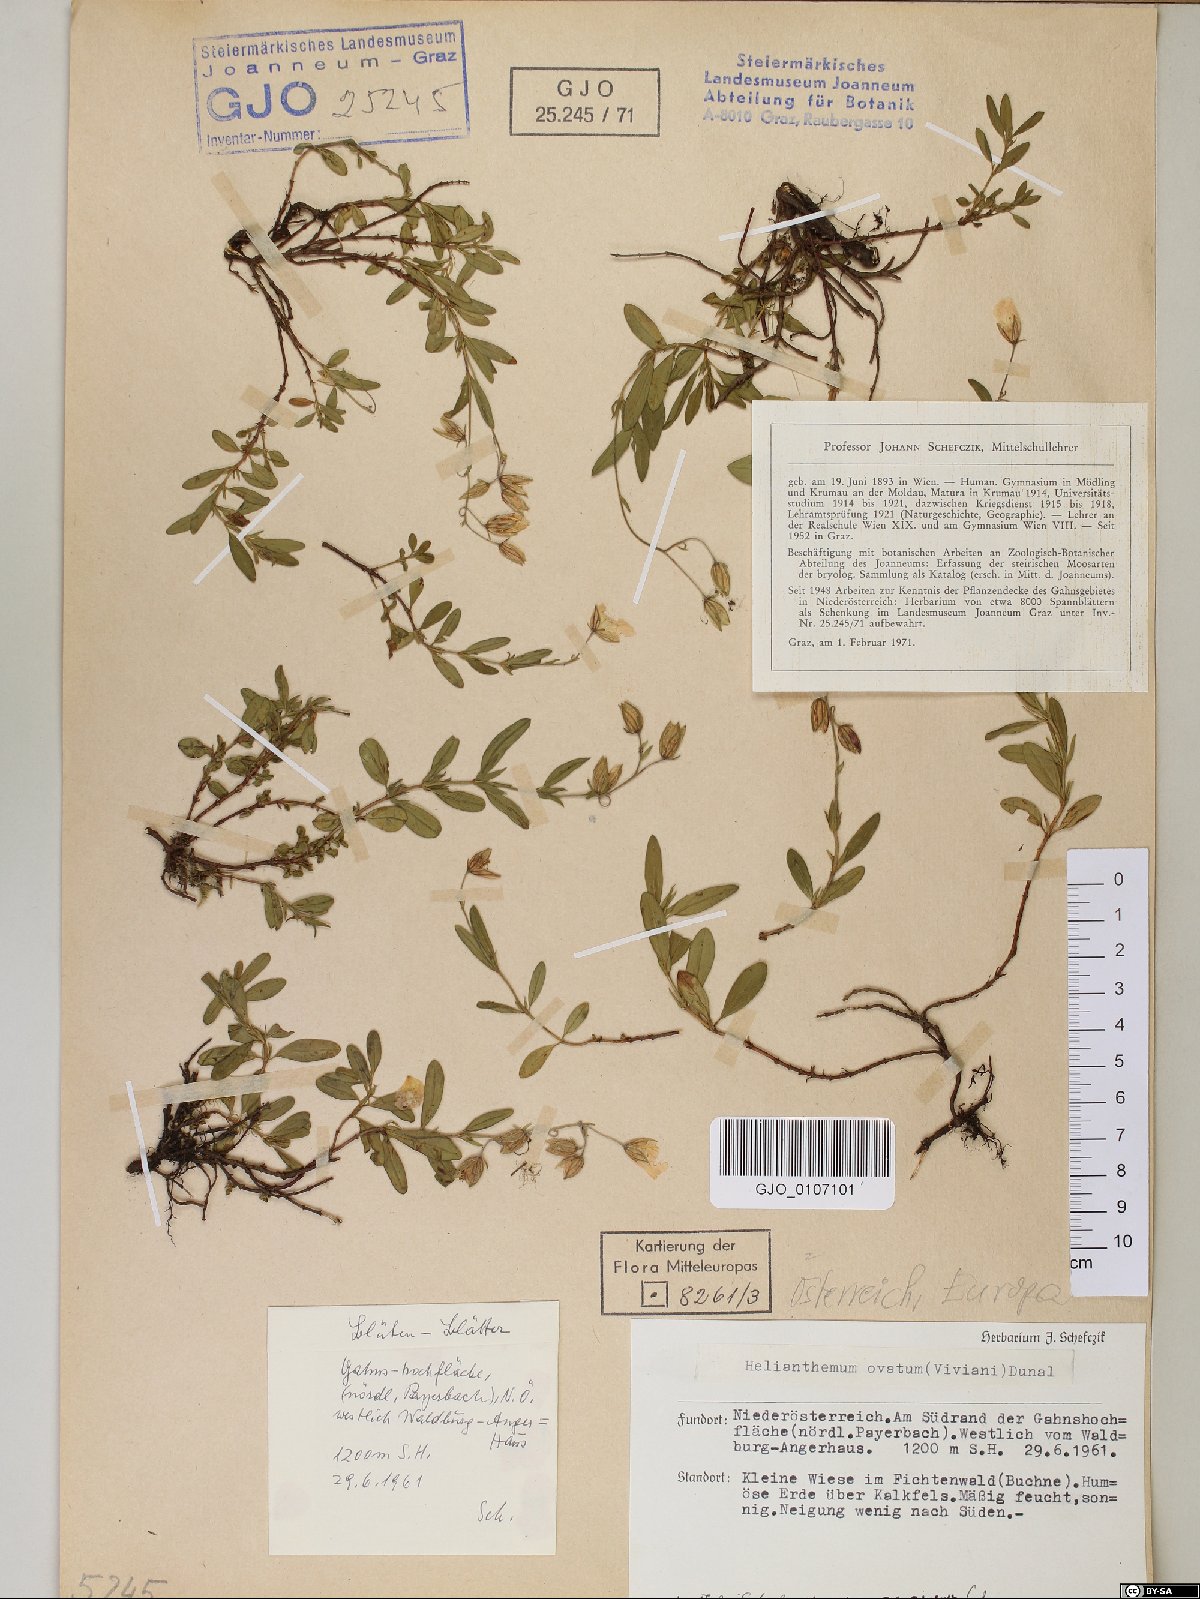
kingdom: Plantae
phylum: Tracheophyta
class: Magnoliopsida
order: Malvales
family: Cistaceae
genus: Helianthemum
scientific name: Helianthemum nummularium
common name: Common rock-rose
